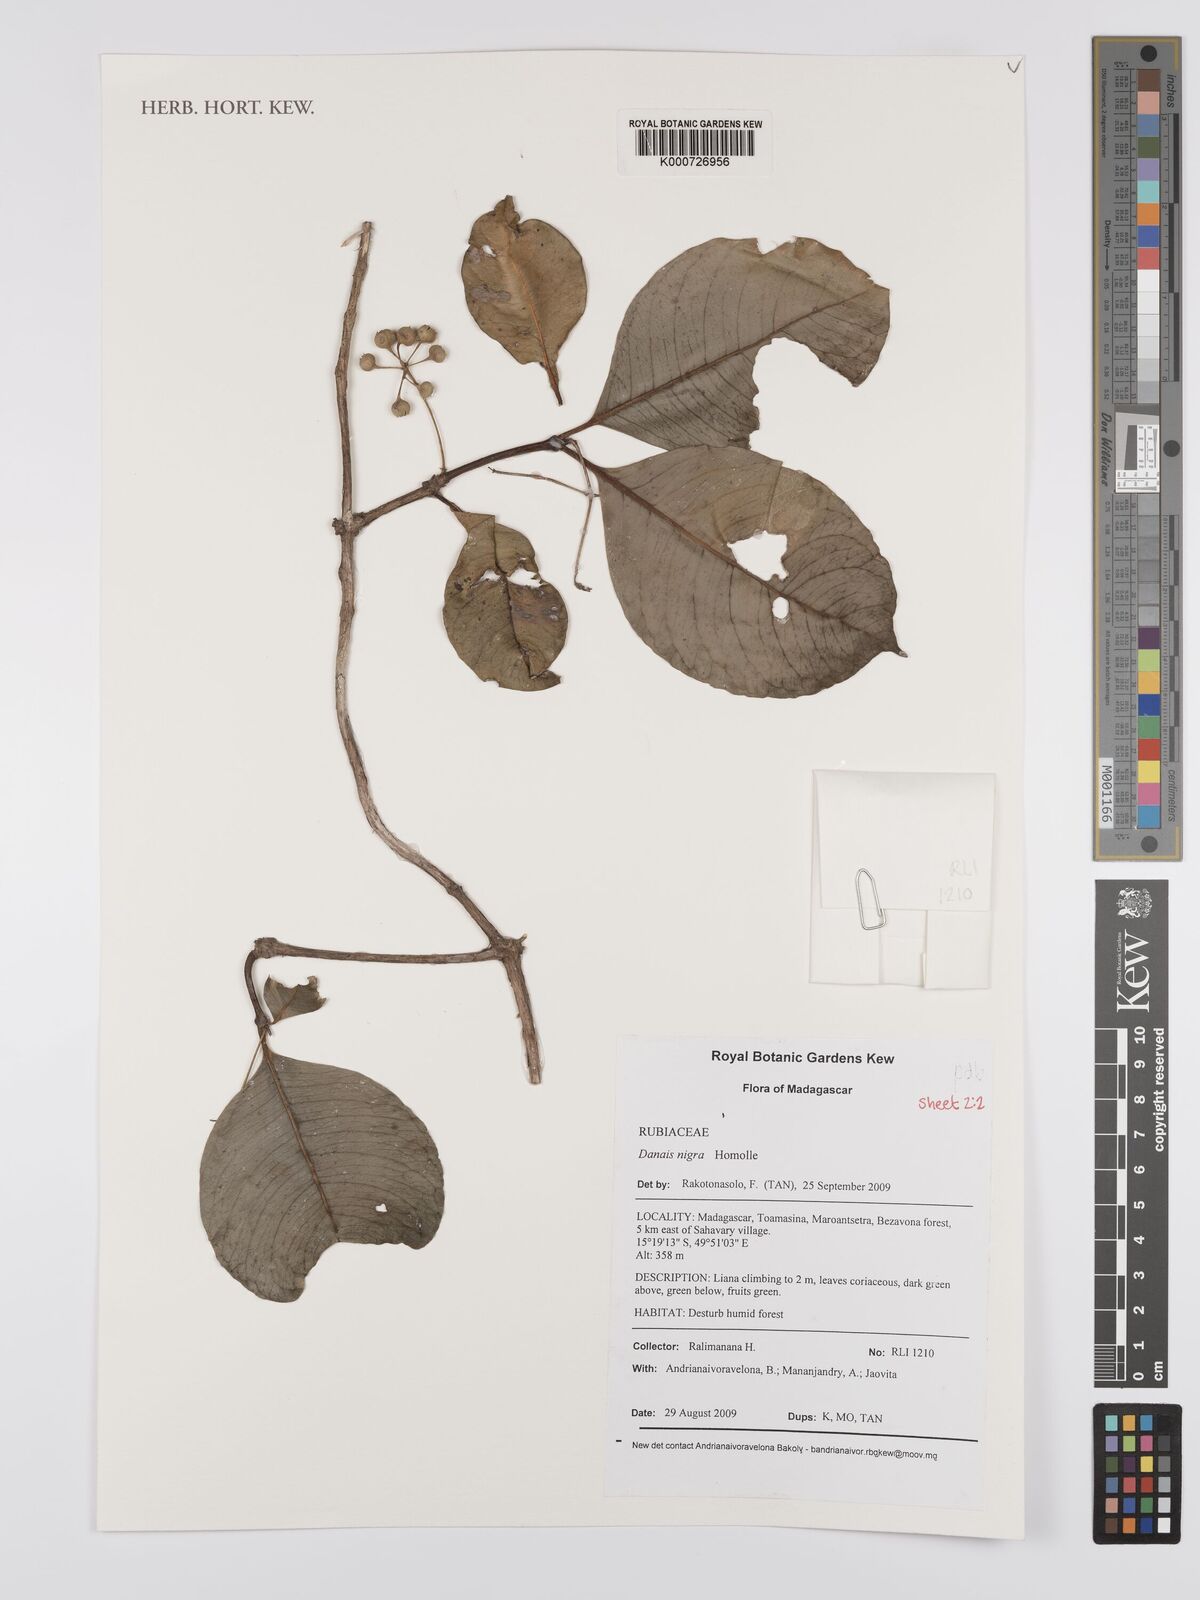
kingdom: Plantae
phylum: Tracheophyta
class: Magnoliopsida
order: Gentianales
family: Rubiaceae
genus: Psychotria
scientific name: Psychotria
